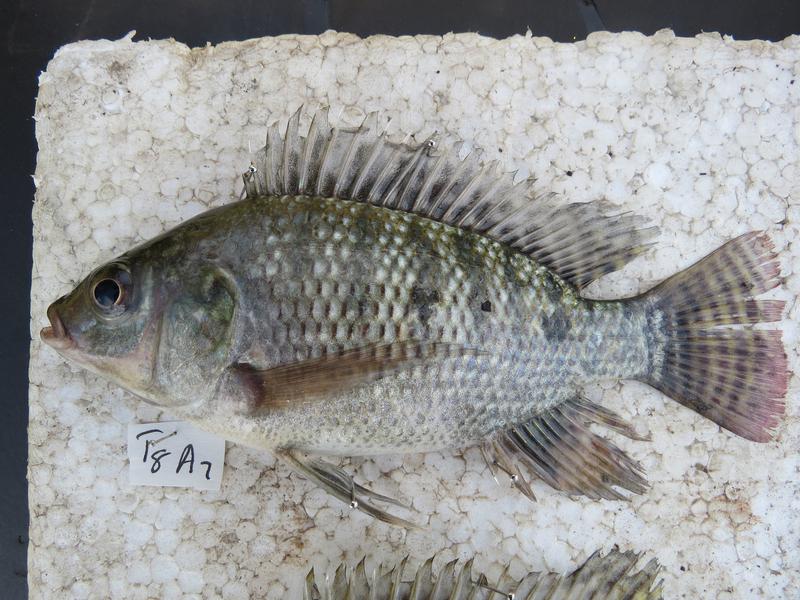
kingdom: Animalia
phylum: Chordata
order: Perciformes
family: Cichlidae
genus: Oreochromis
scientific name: Oreochromis niloticus
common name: Nile tilapia
